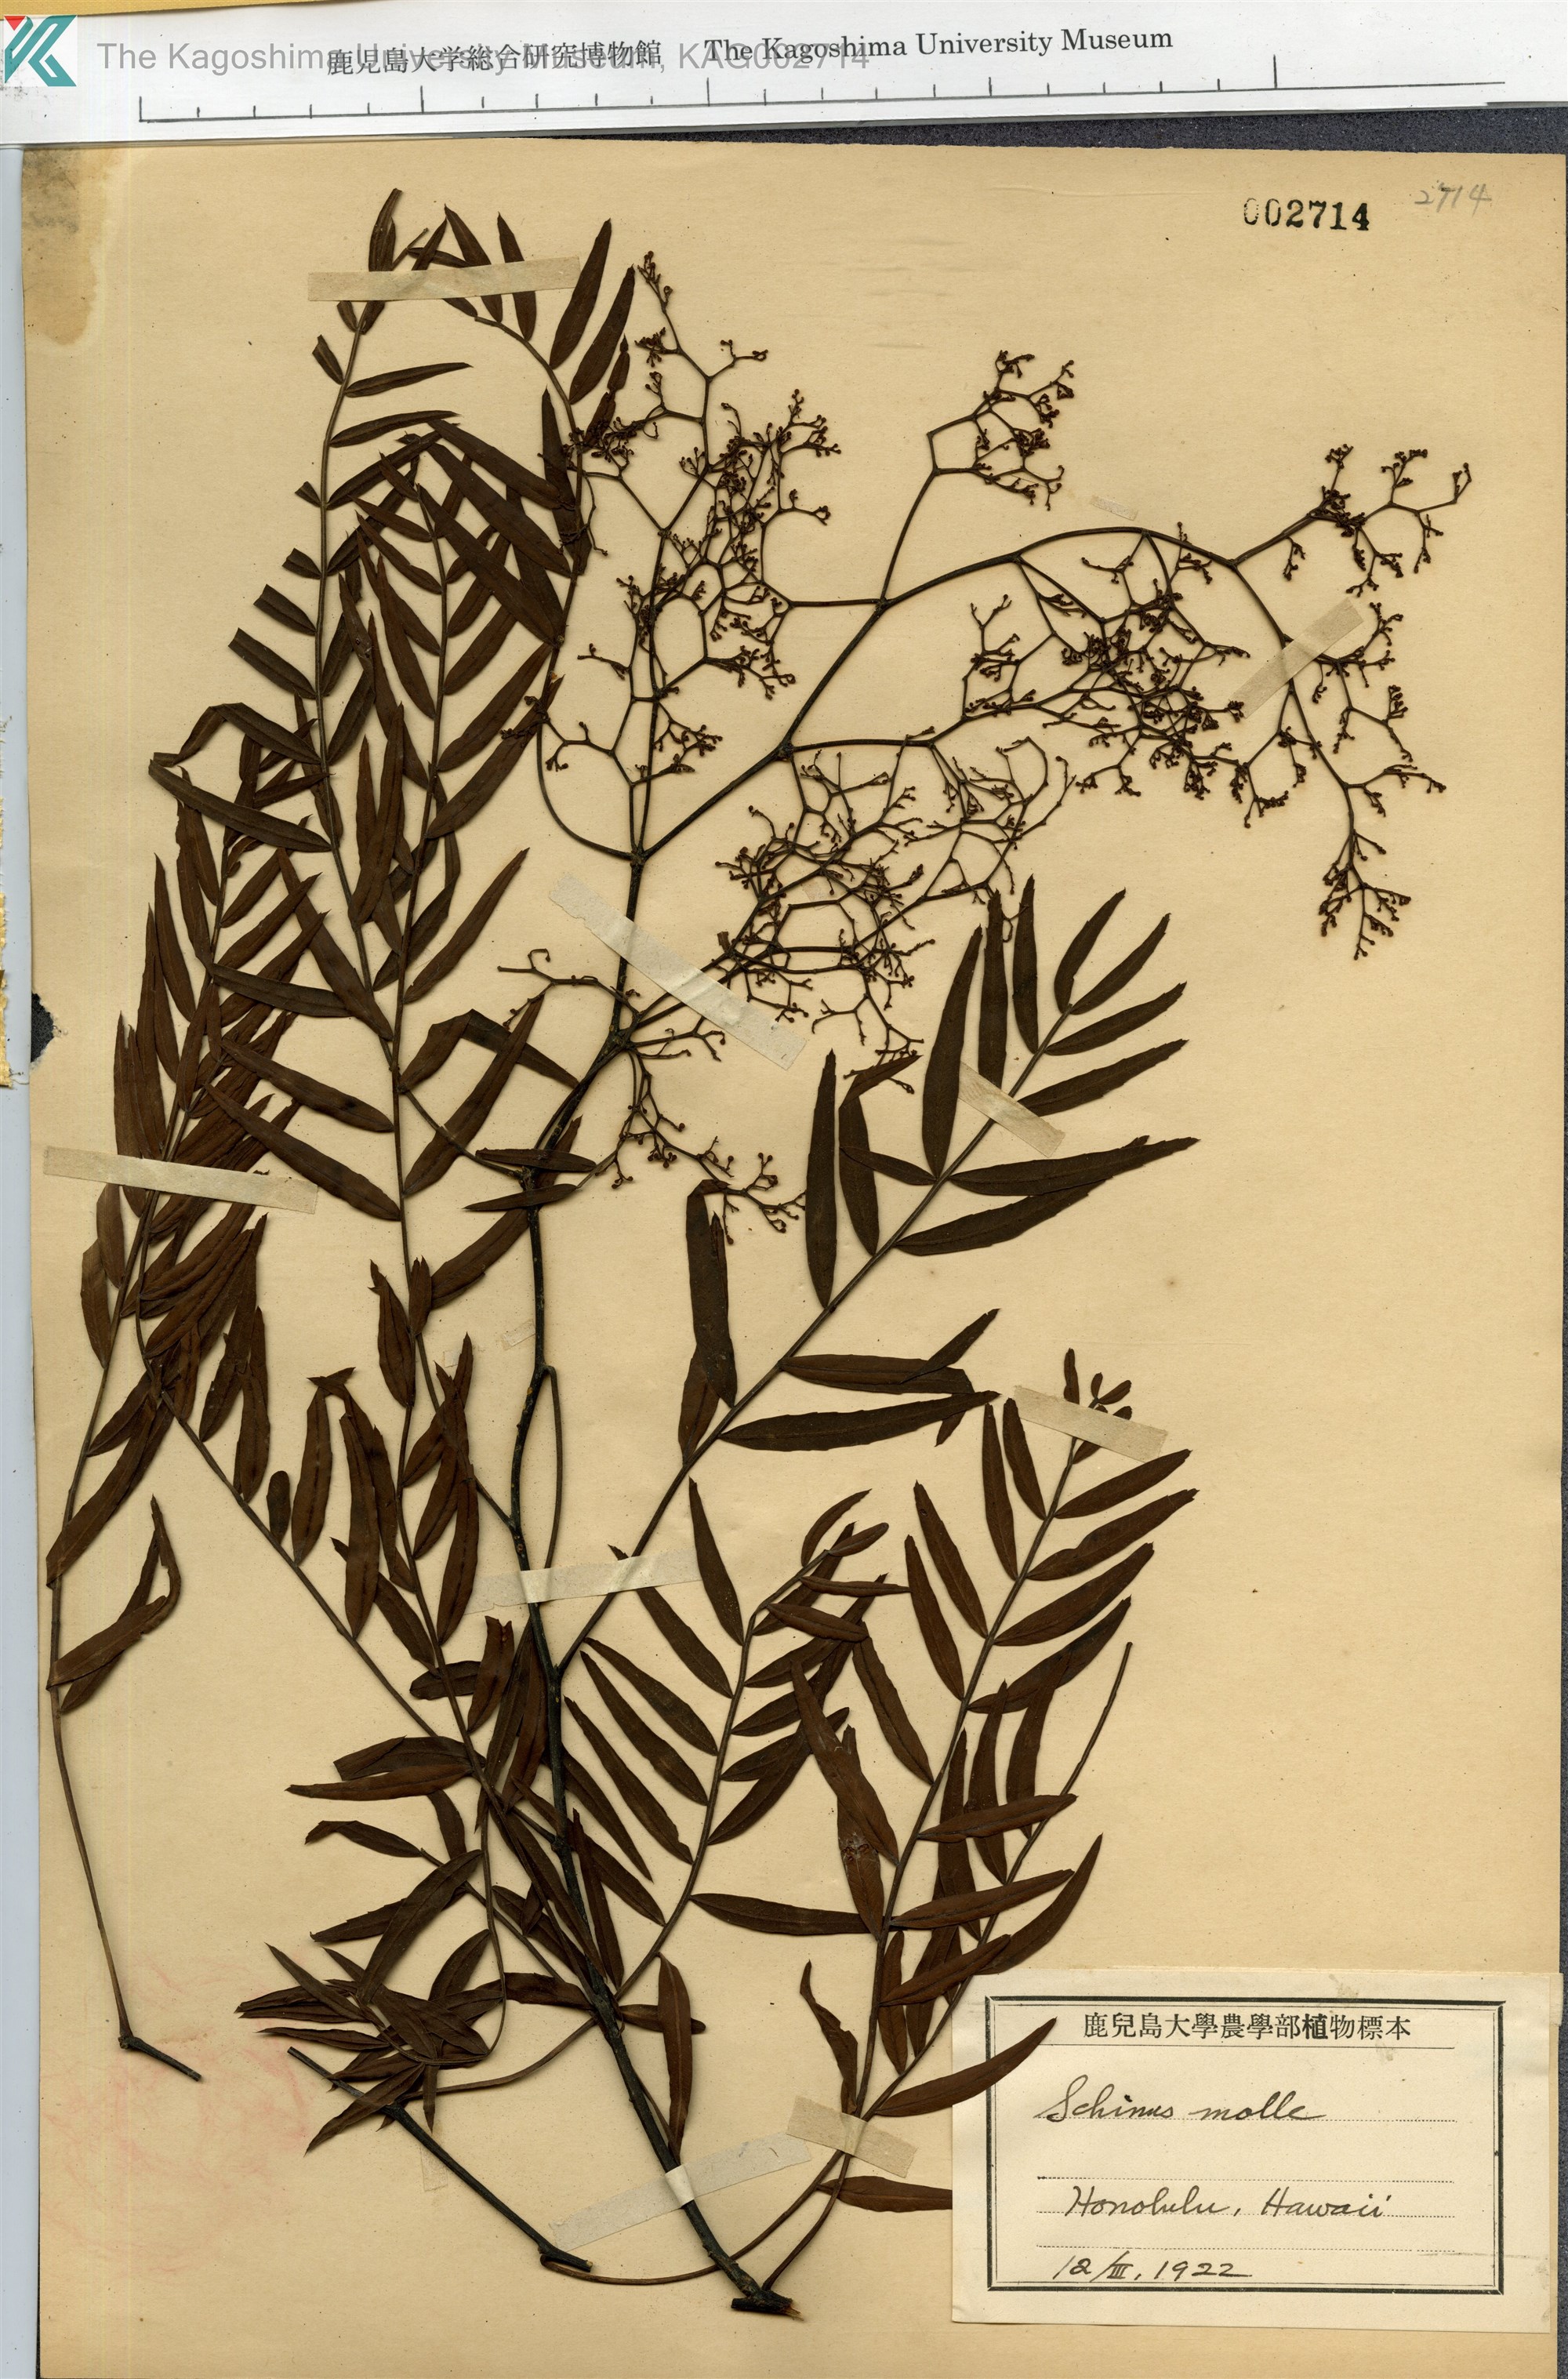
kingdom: Plantae
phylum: Tracheophyta
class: Magnoliopsida
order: Sapindales
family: Anacardiaceae
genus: Schinus
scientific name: Schinus molle
